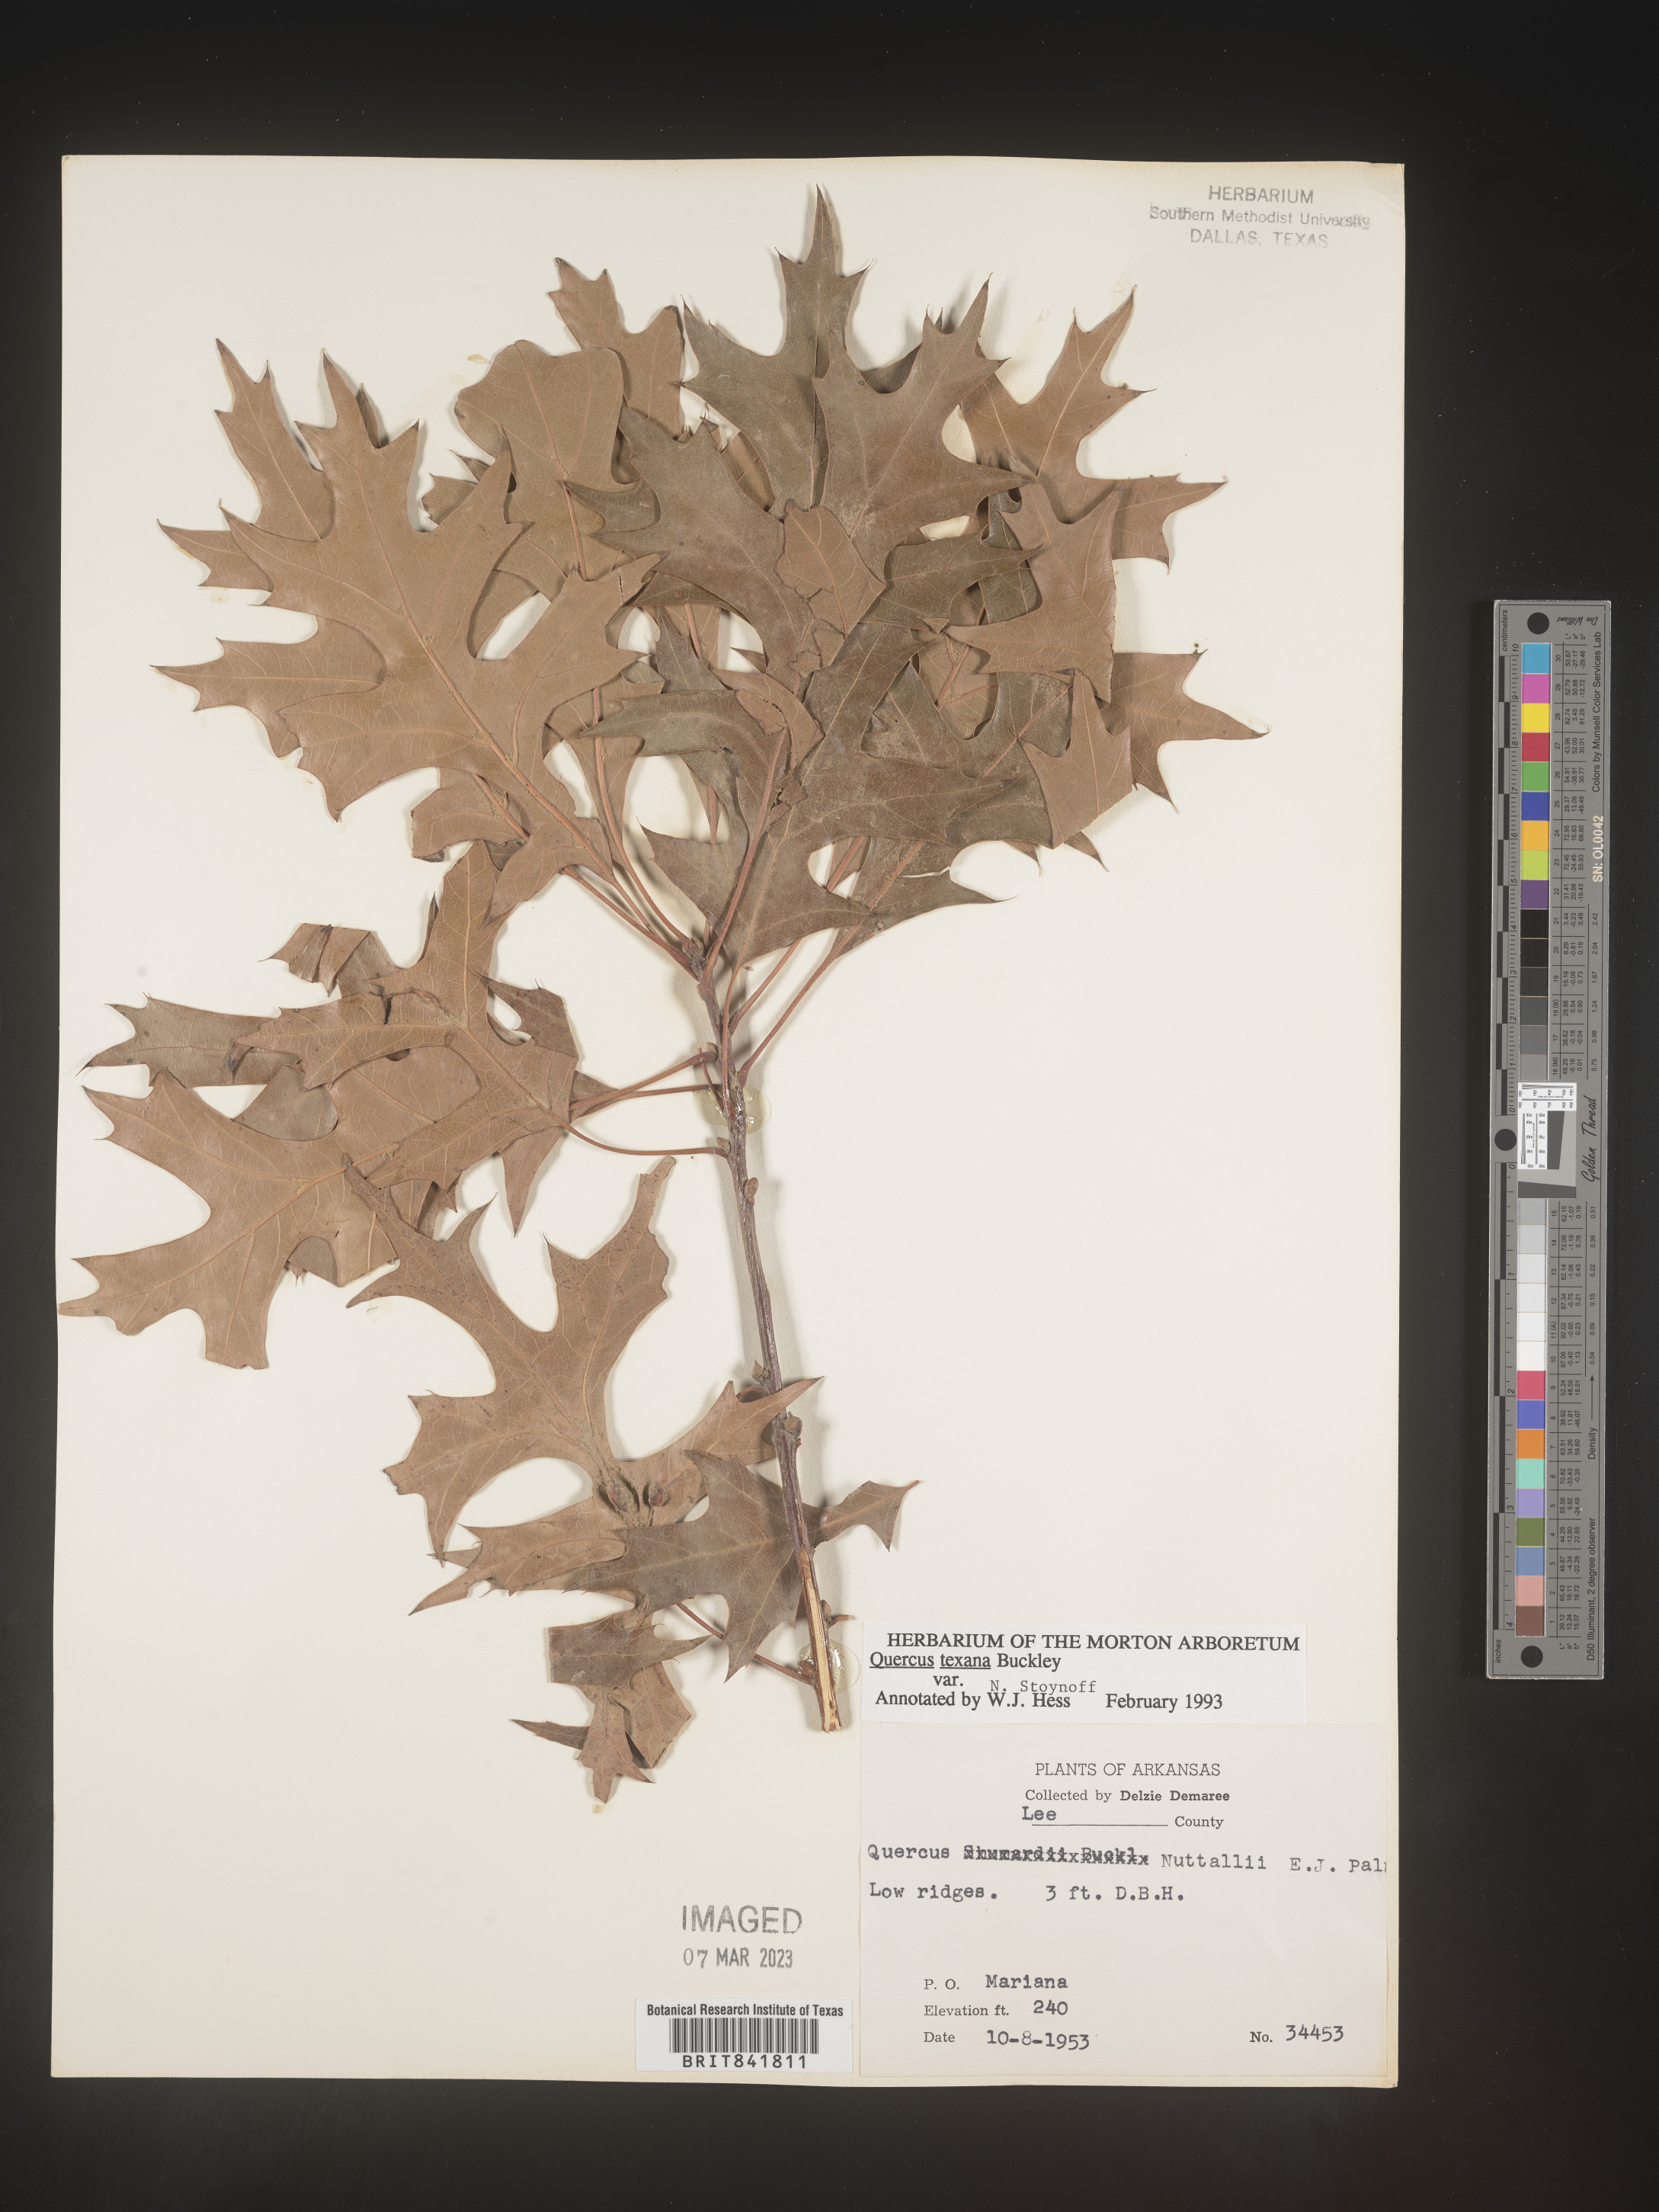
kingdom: Plantae
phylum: Tracheophyta
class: Magnoliopsida
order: Fagales
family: Fagaceae
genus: Quercus
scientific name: Quercus texana
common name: Nuttall oak
